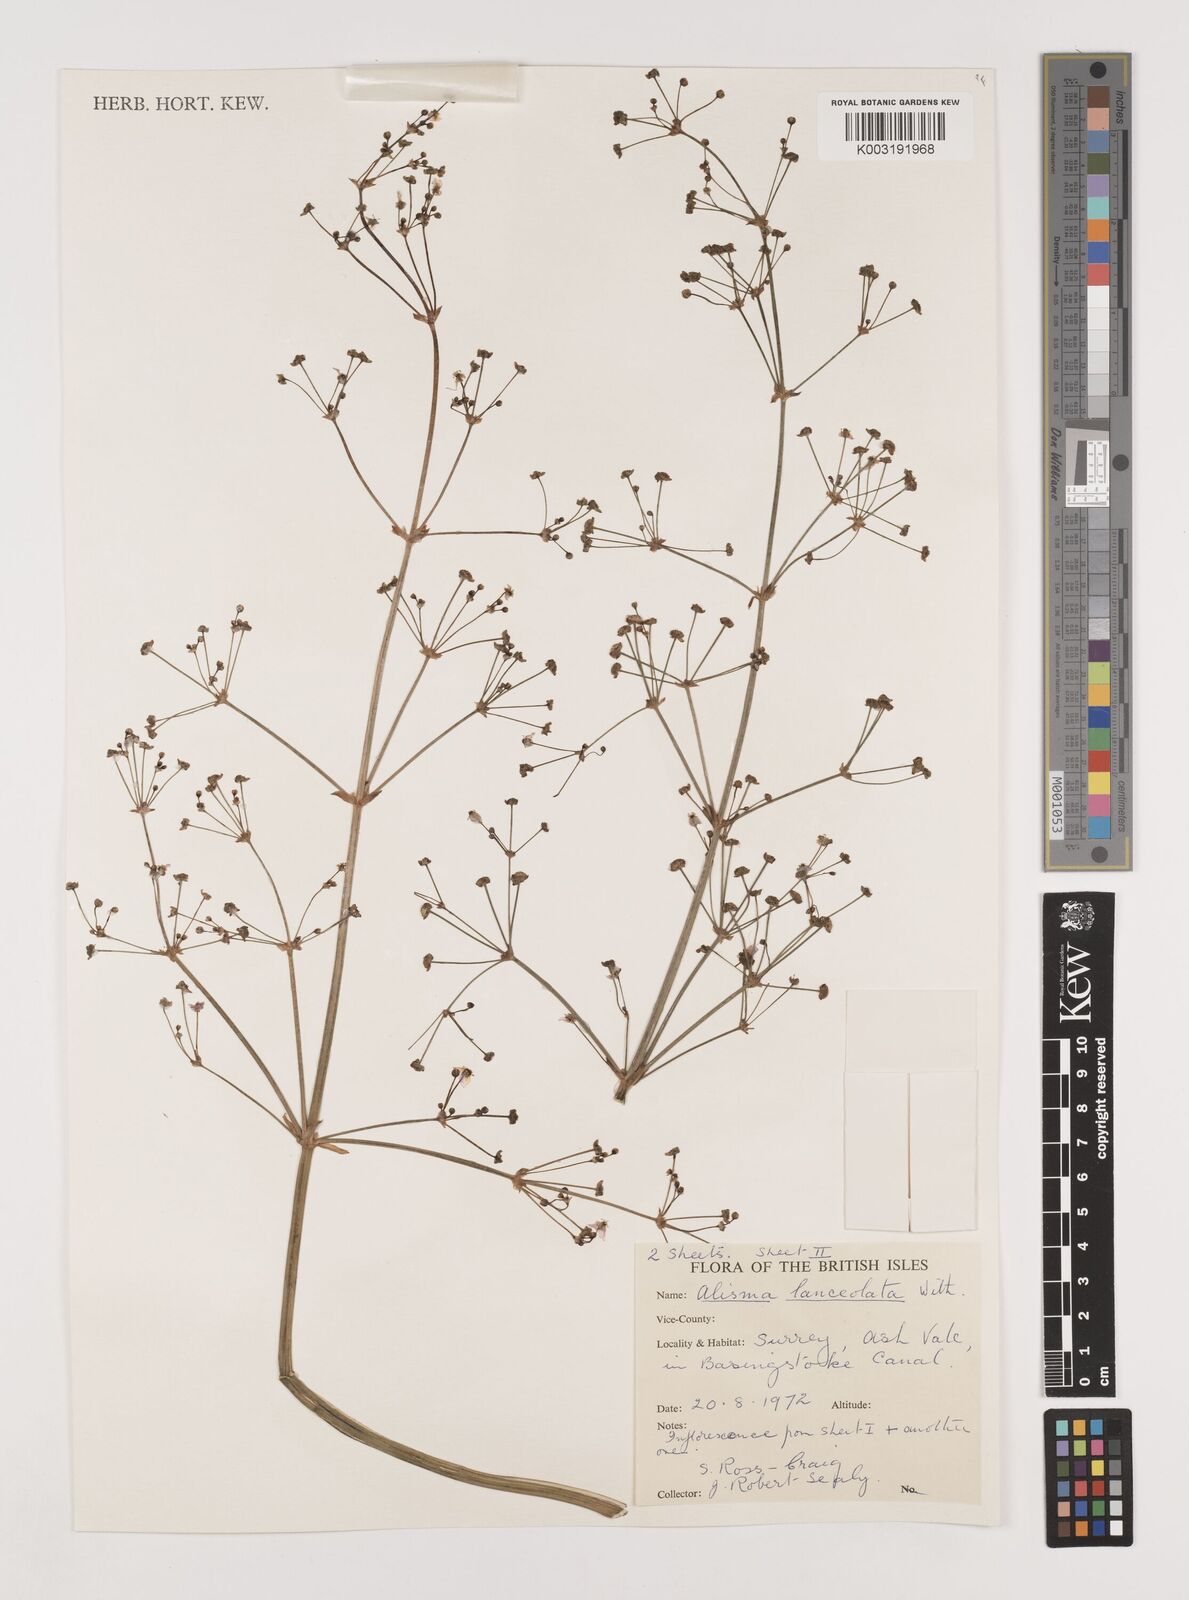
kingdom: Plantae
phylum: Tracheophyta
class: Liliopsida
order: Alismatales
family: Alismataceae
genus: Alisma
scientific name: Alisma lanceolatum
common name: Narrow-leaved water-plantain
